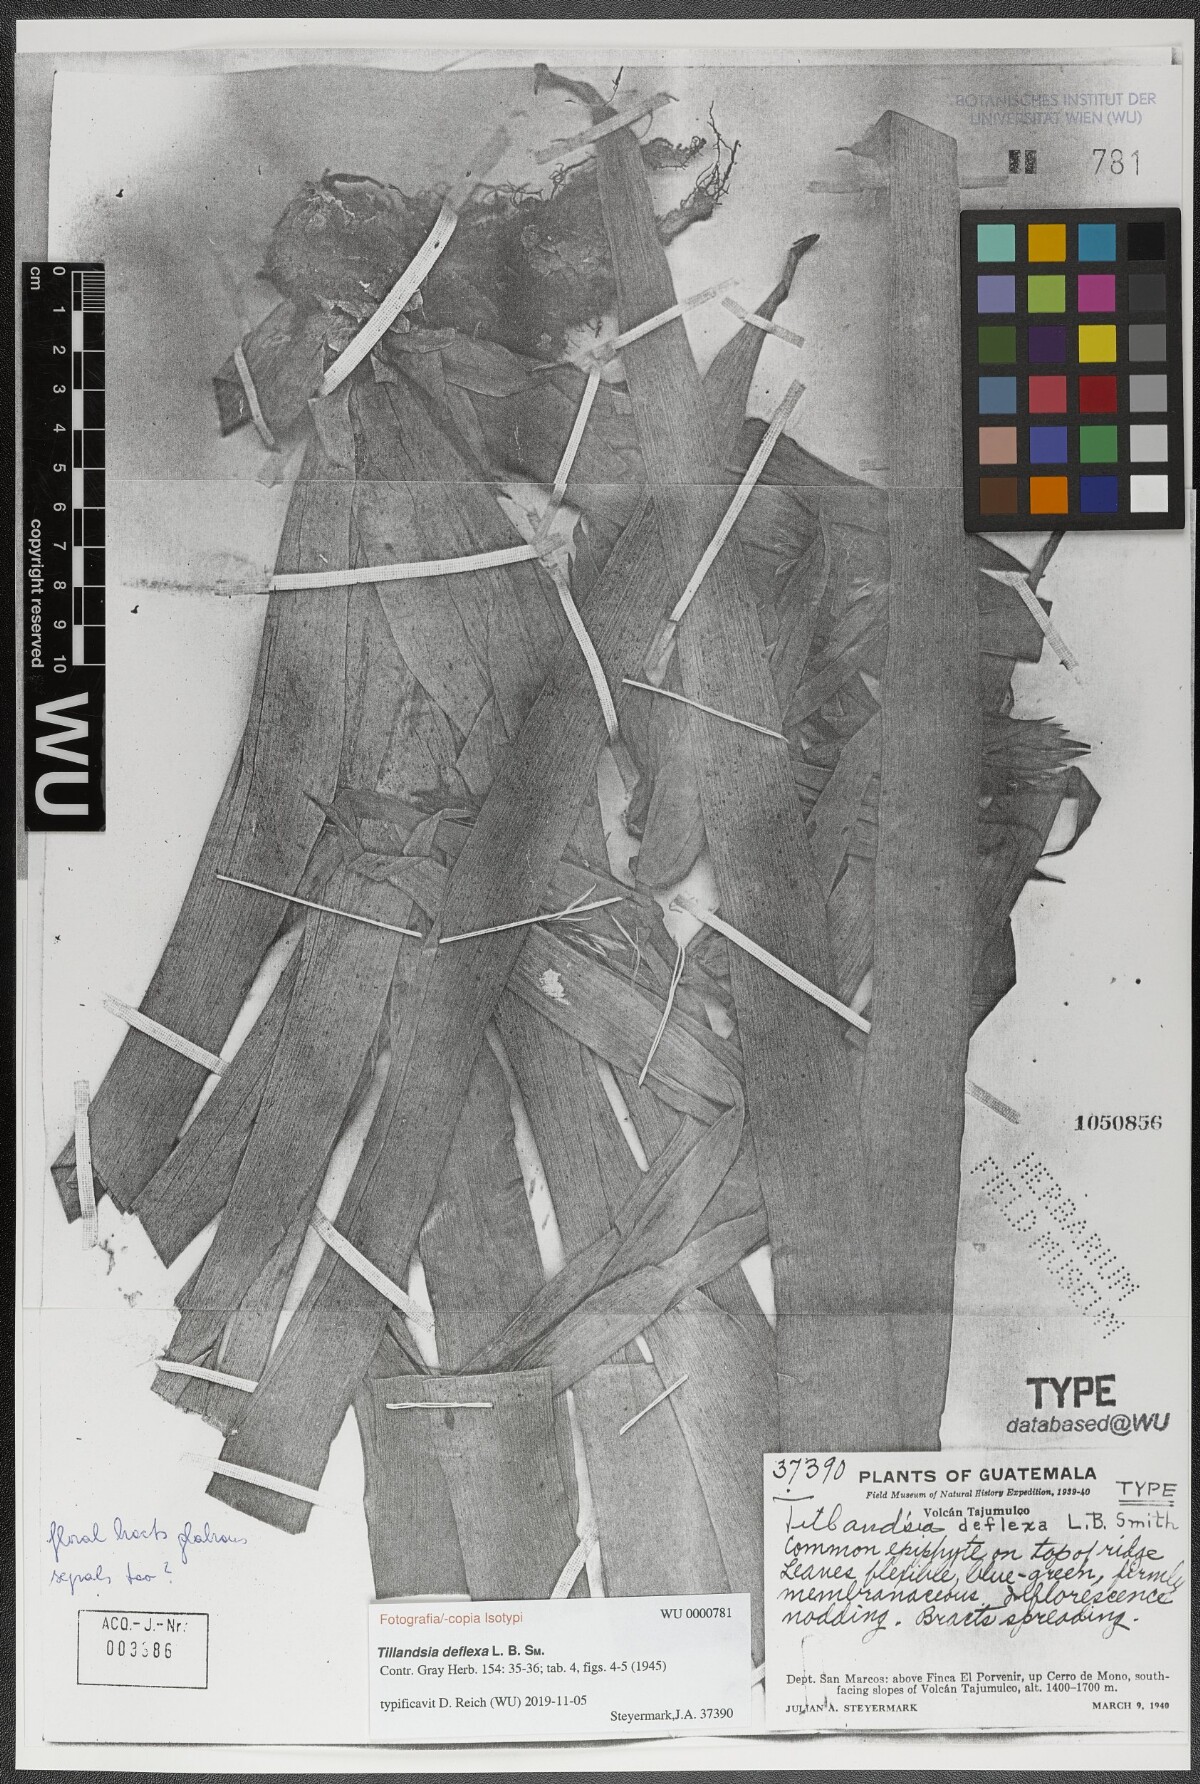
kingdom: Plantae
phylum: Tracheophyta
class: Liliopsida
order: Poales
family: Bromeliaceae
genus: Tillandsia
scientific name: Tillandsia deflexa
